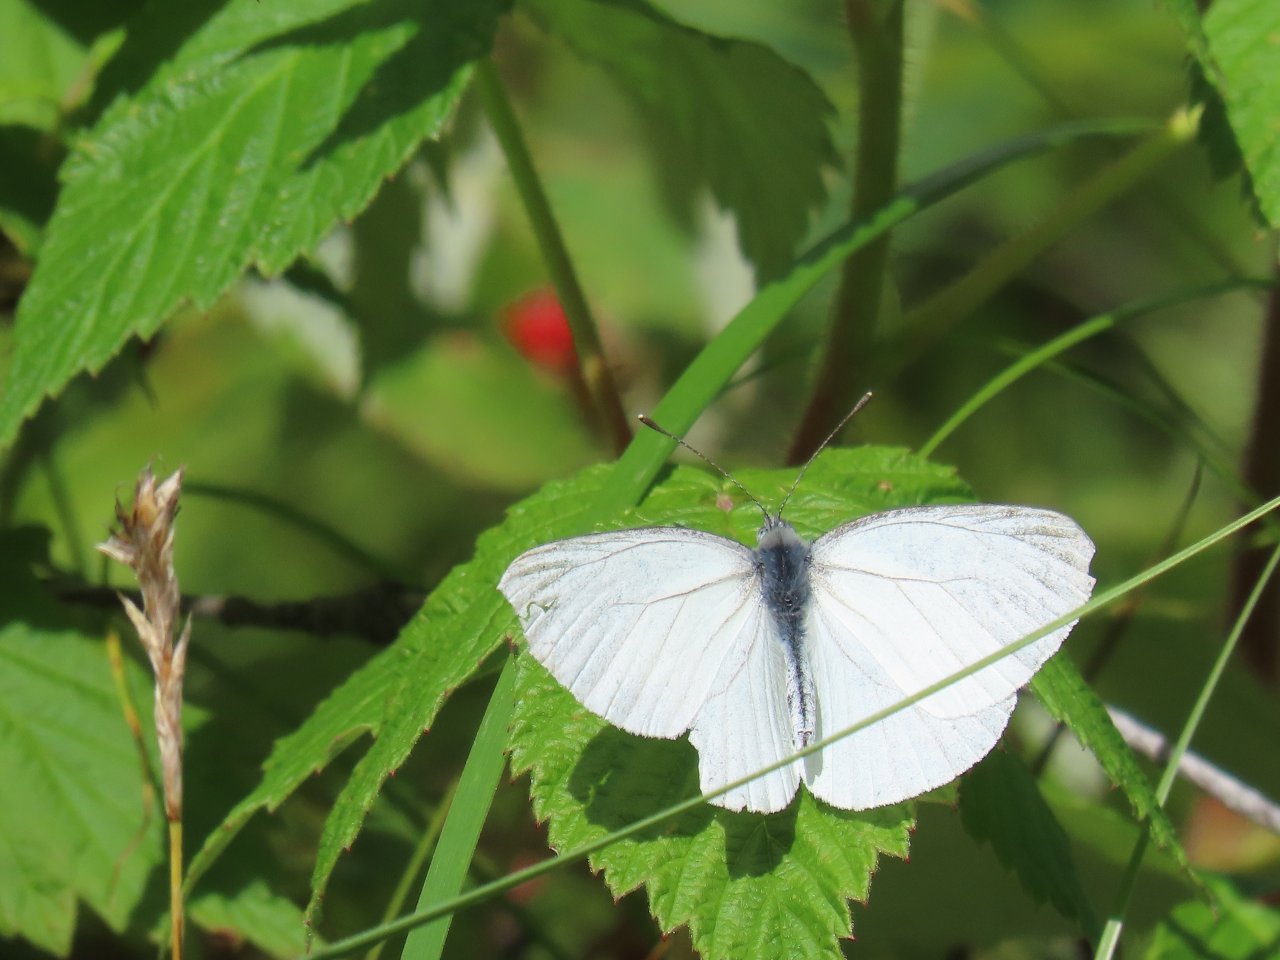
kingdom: Animalia
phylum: Arthropoda
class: Insecta
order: Lepidoptera
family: Pieridae
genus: Pieris
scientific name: Pieris rapae
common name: Cabbage White
